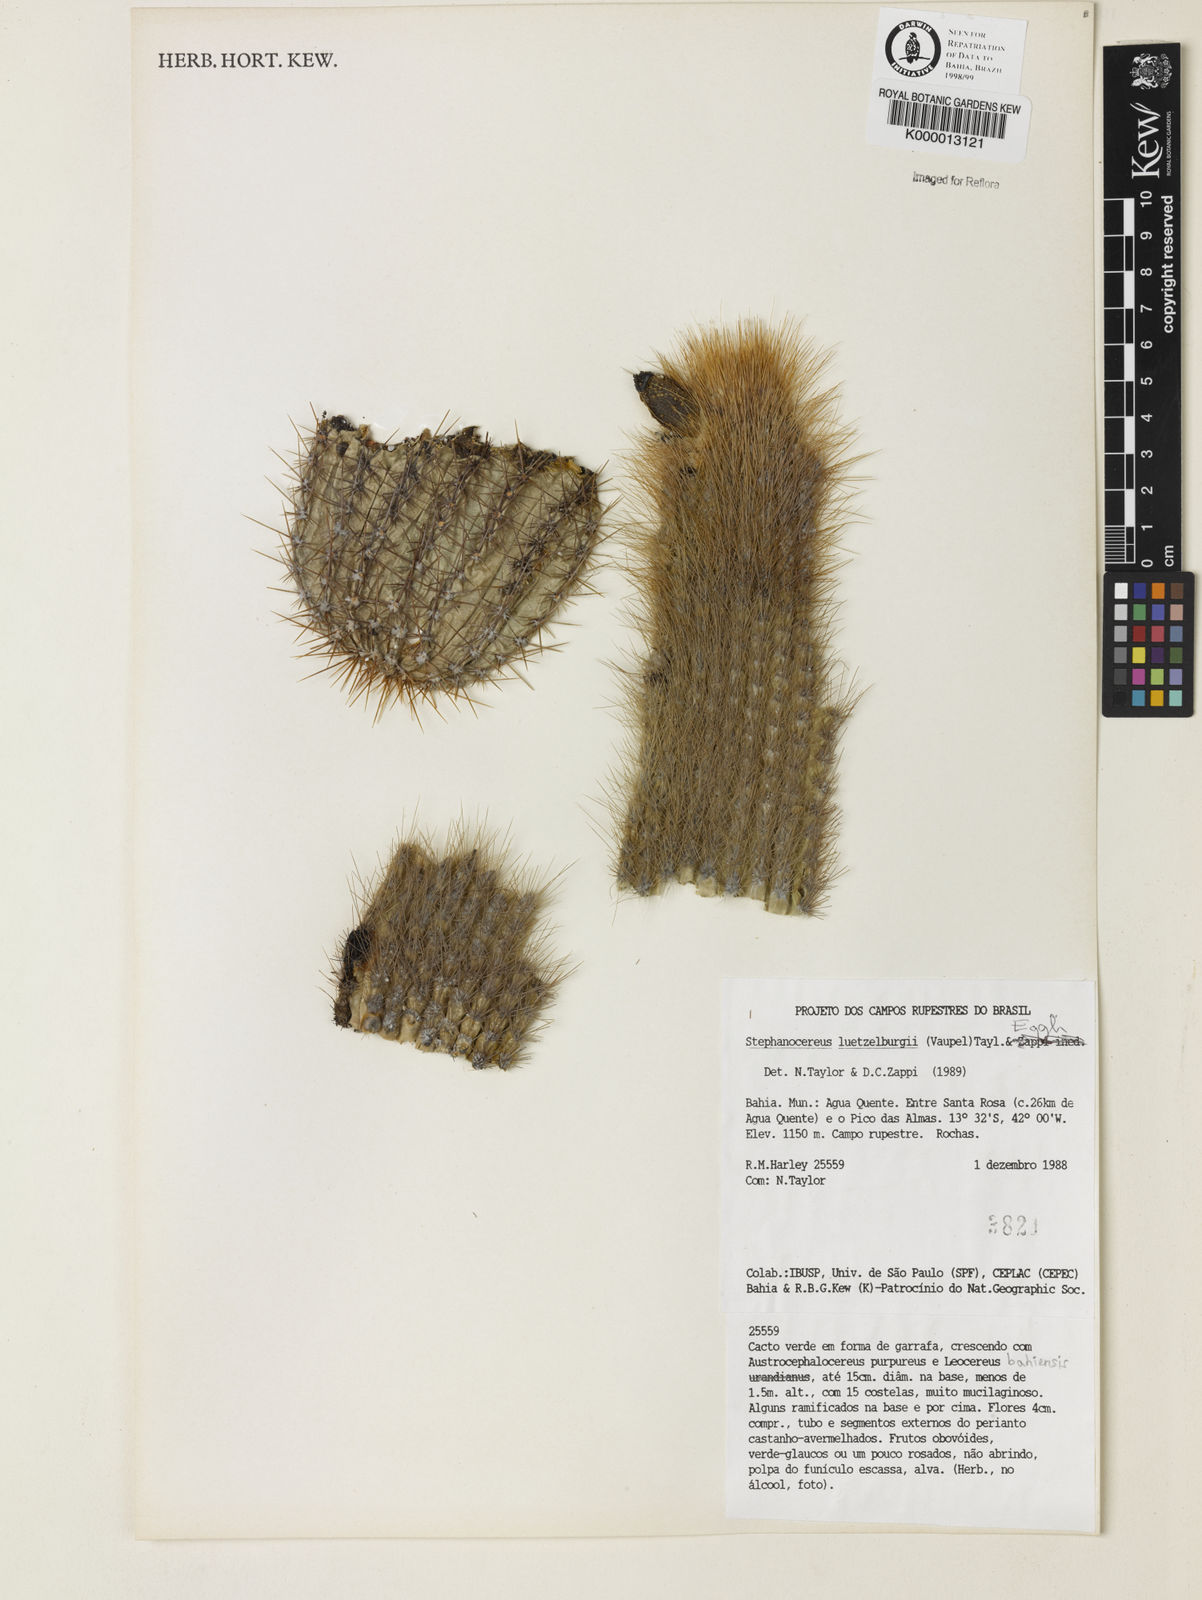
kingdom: Plantae
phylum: Tracheophyta
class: Magnoliopsida
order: Caryophyllales
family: Cactaceae
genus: Lagenosocereus
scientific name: Lagenosocereus luetzelburgii
